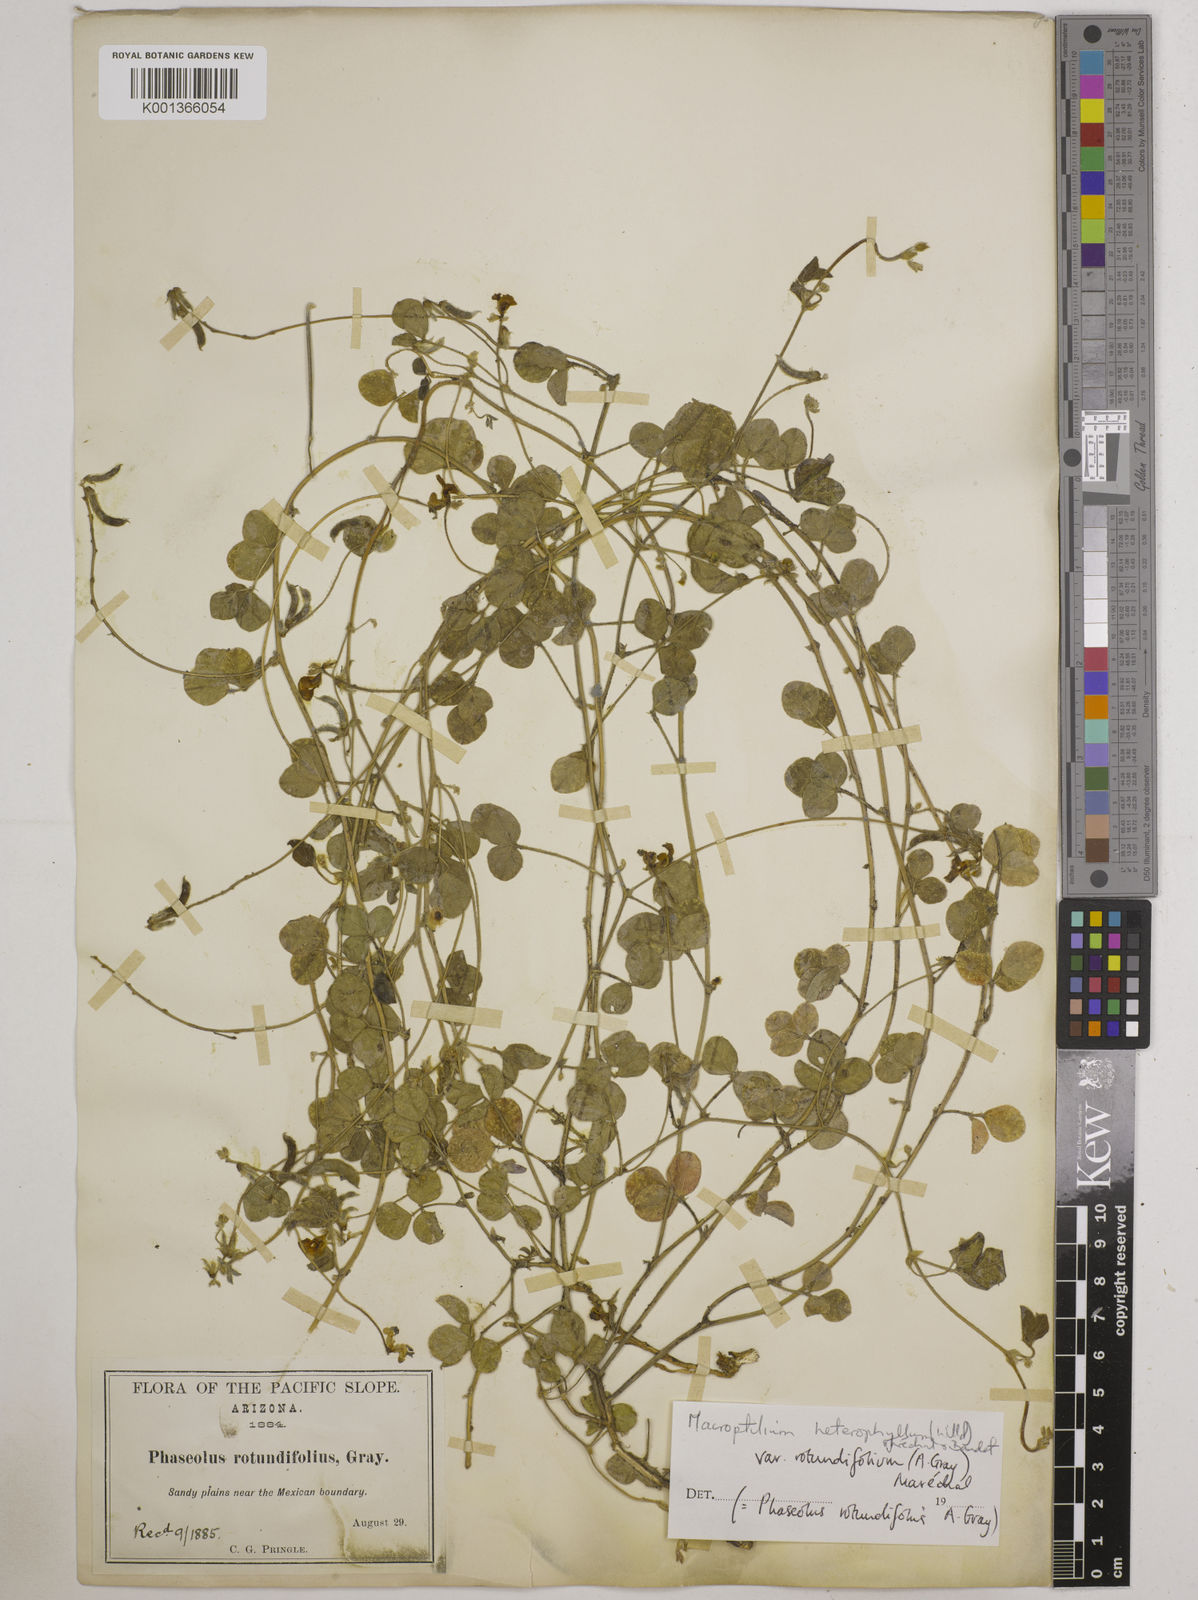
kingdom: Plantae
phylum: Tracheophyta
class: Magnoliopsida
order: Fabales
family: Fabaceae
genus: Macroptilium
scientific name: Macroptilium gibbosifolium
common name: Variableleaf bushbean
